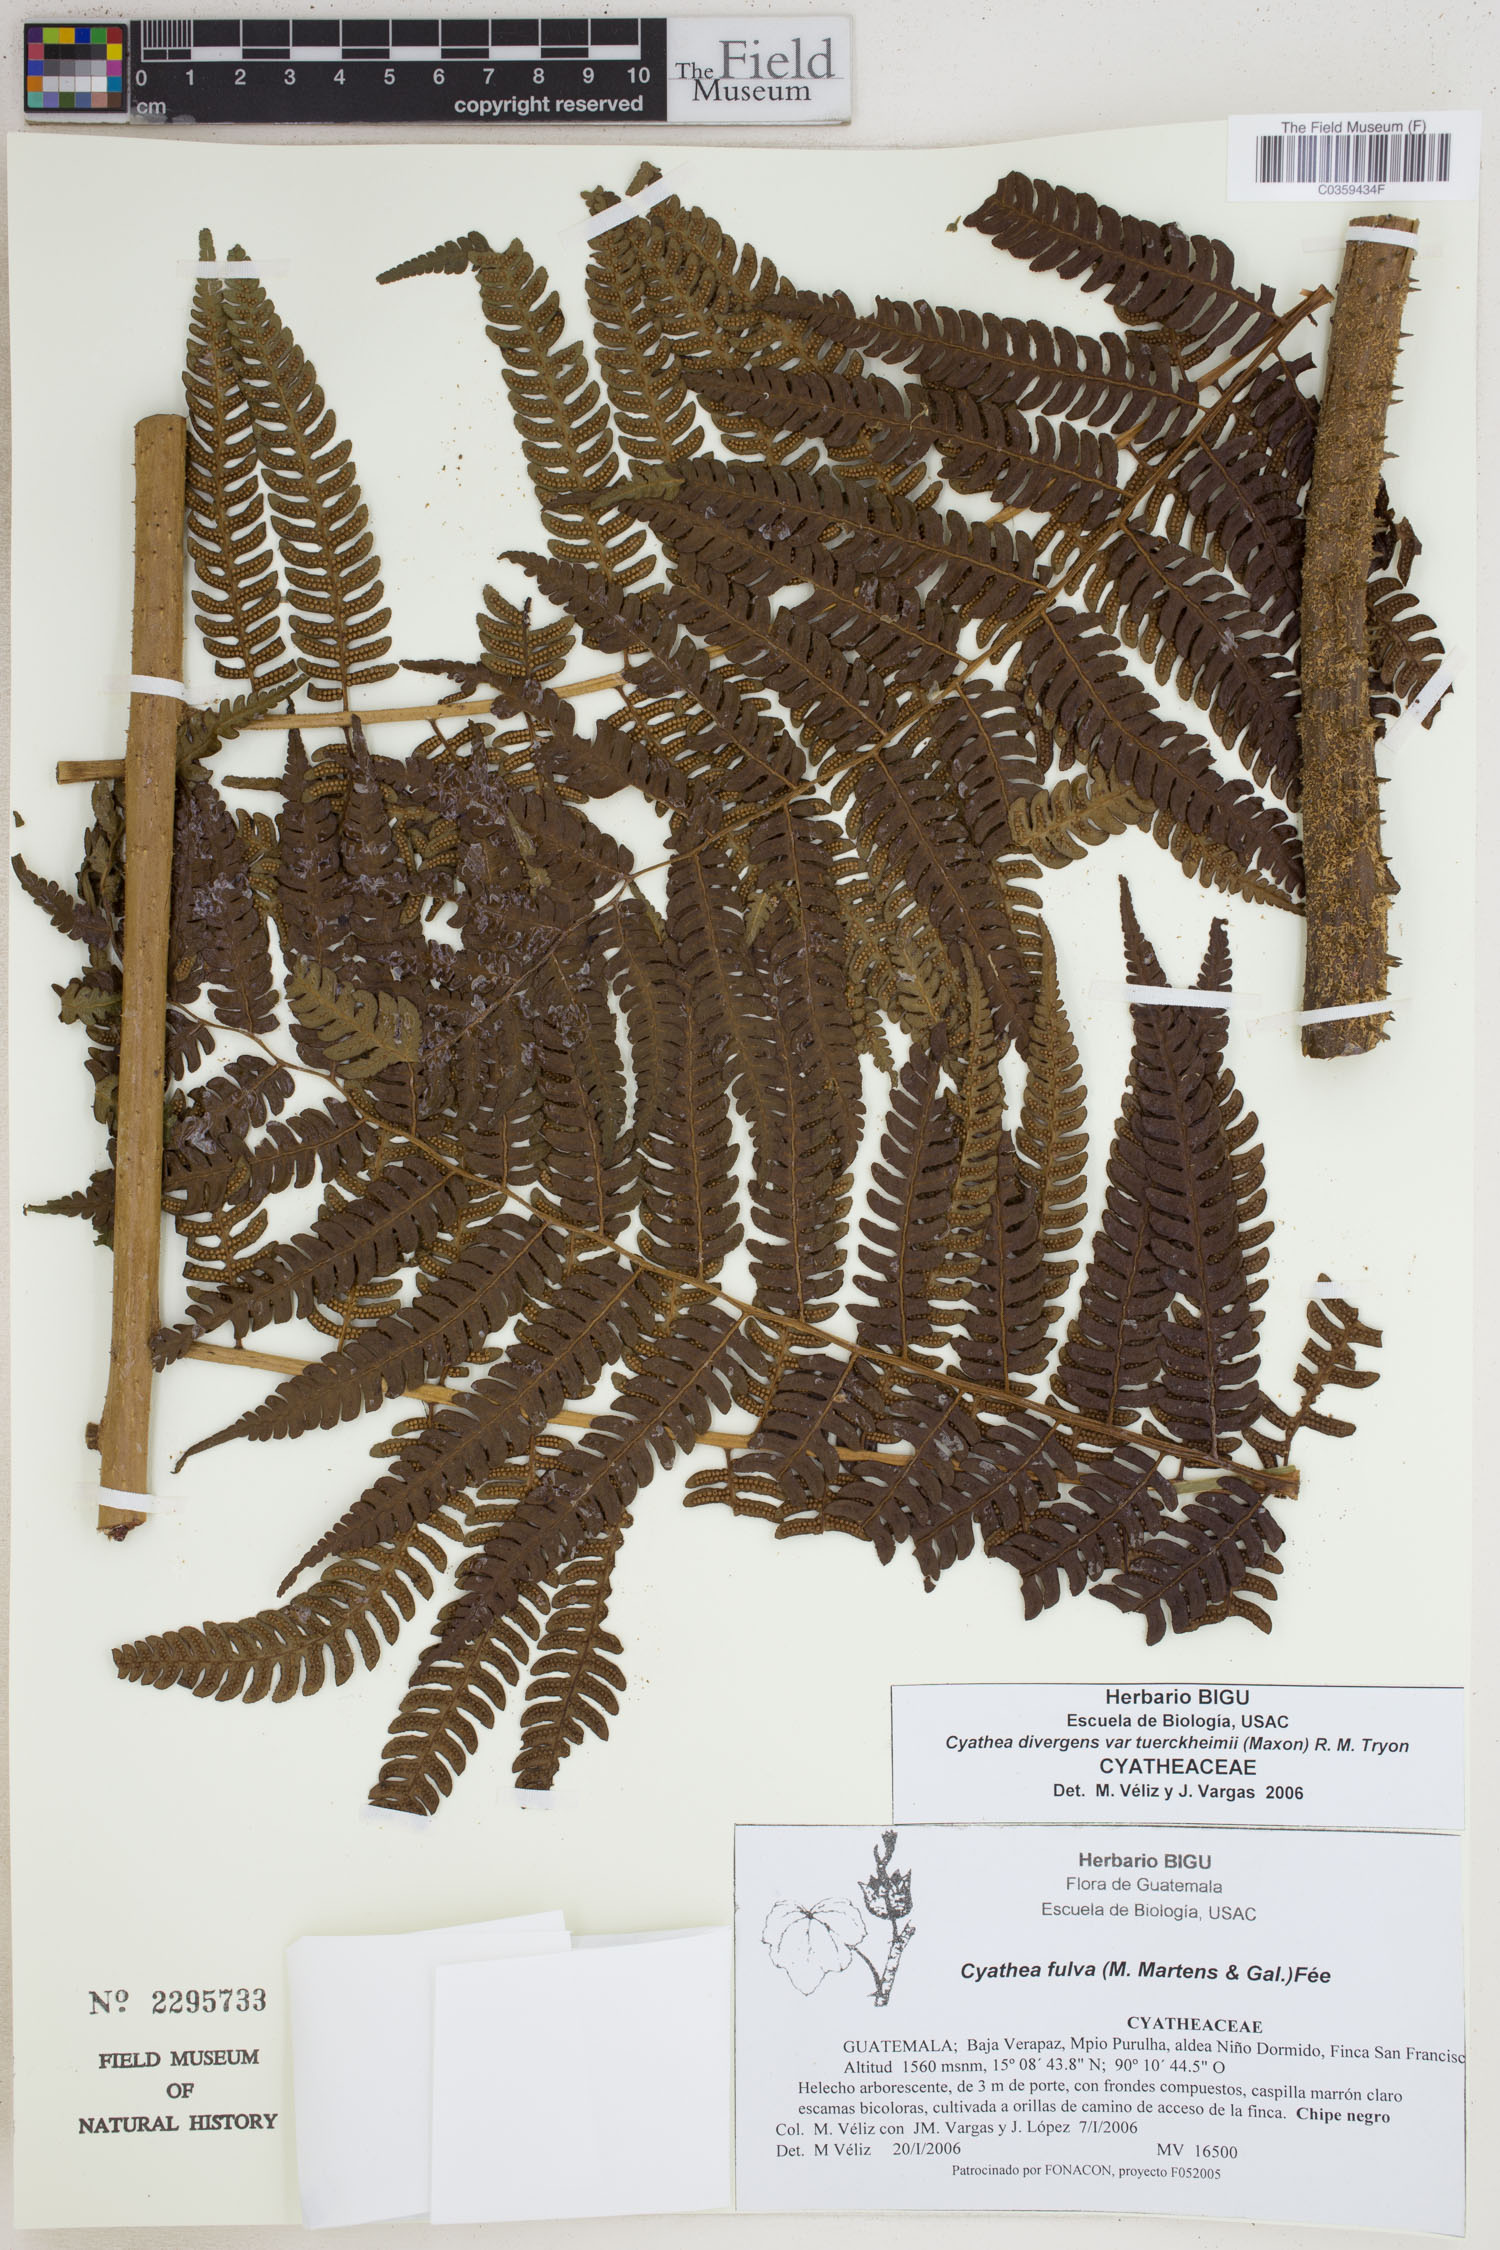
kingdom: Plantae
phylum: Tracheophyta
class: Polypodiopsida
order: Cyatheales
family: Cyatheaceae
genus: Cyathea
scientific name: Cyathea tuerckheimii
